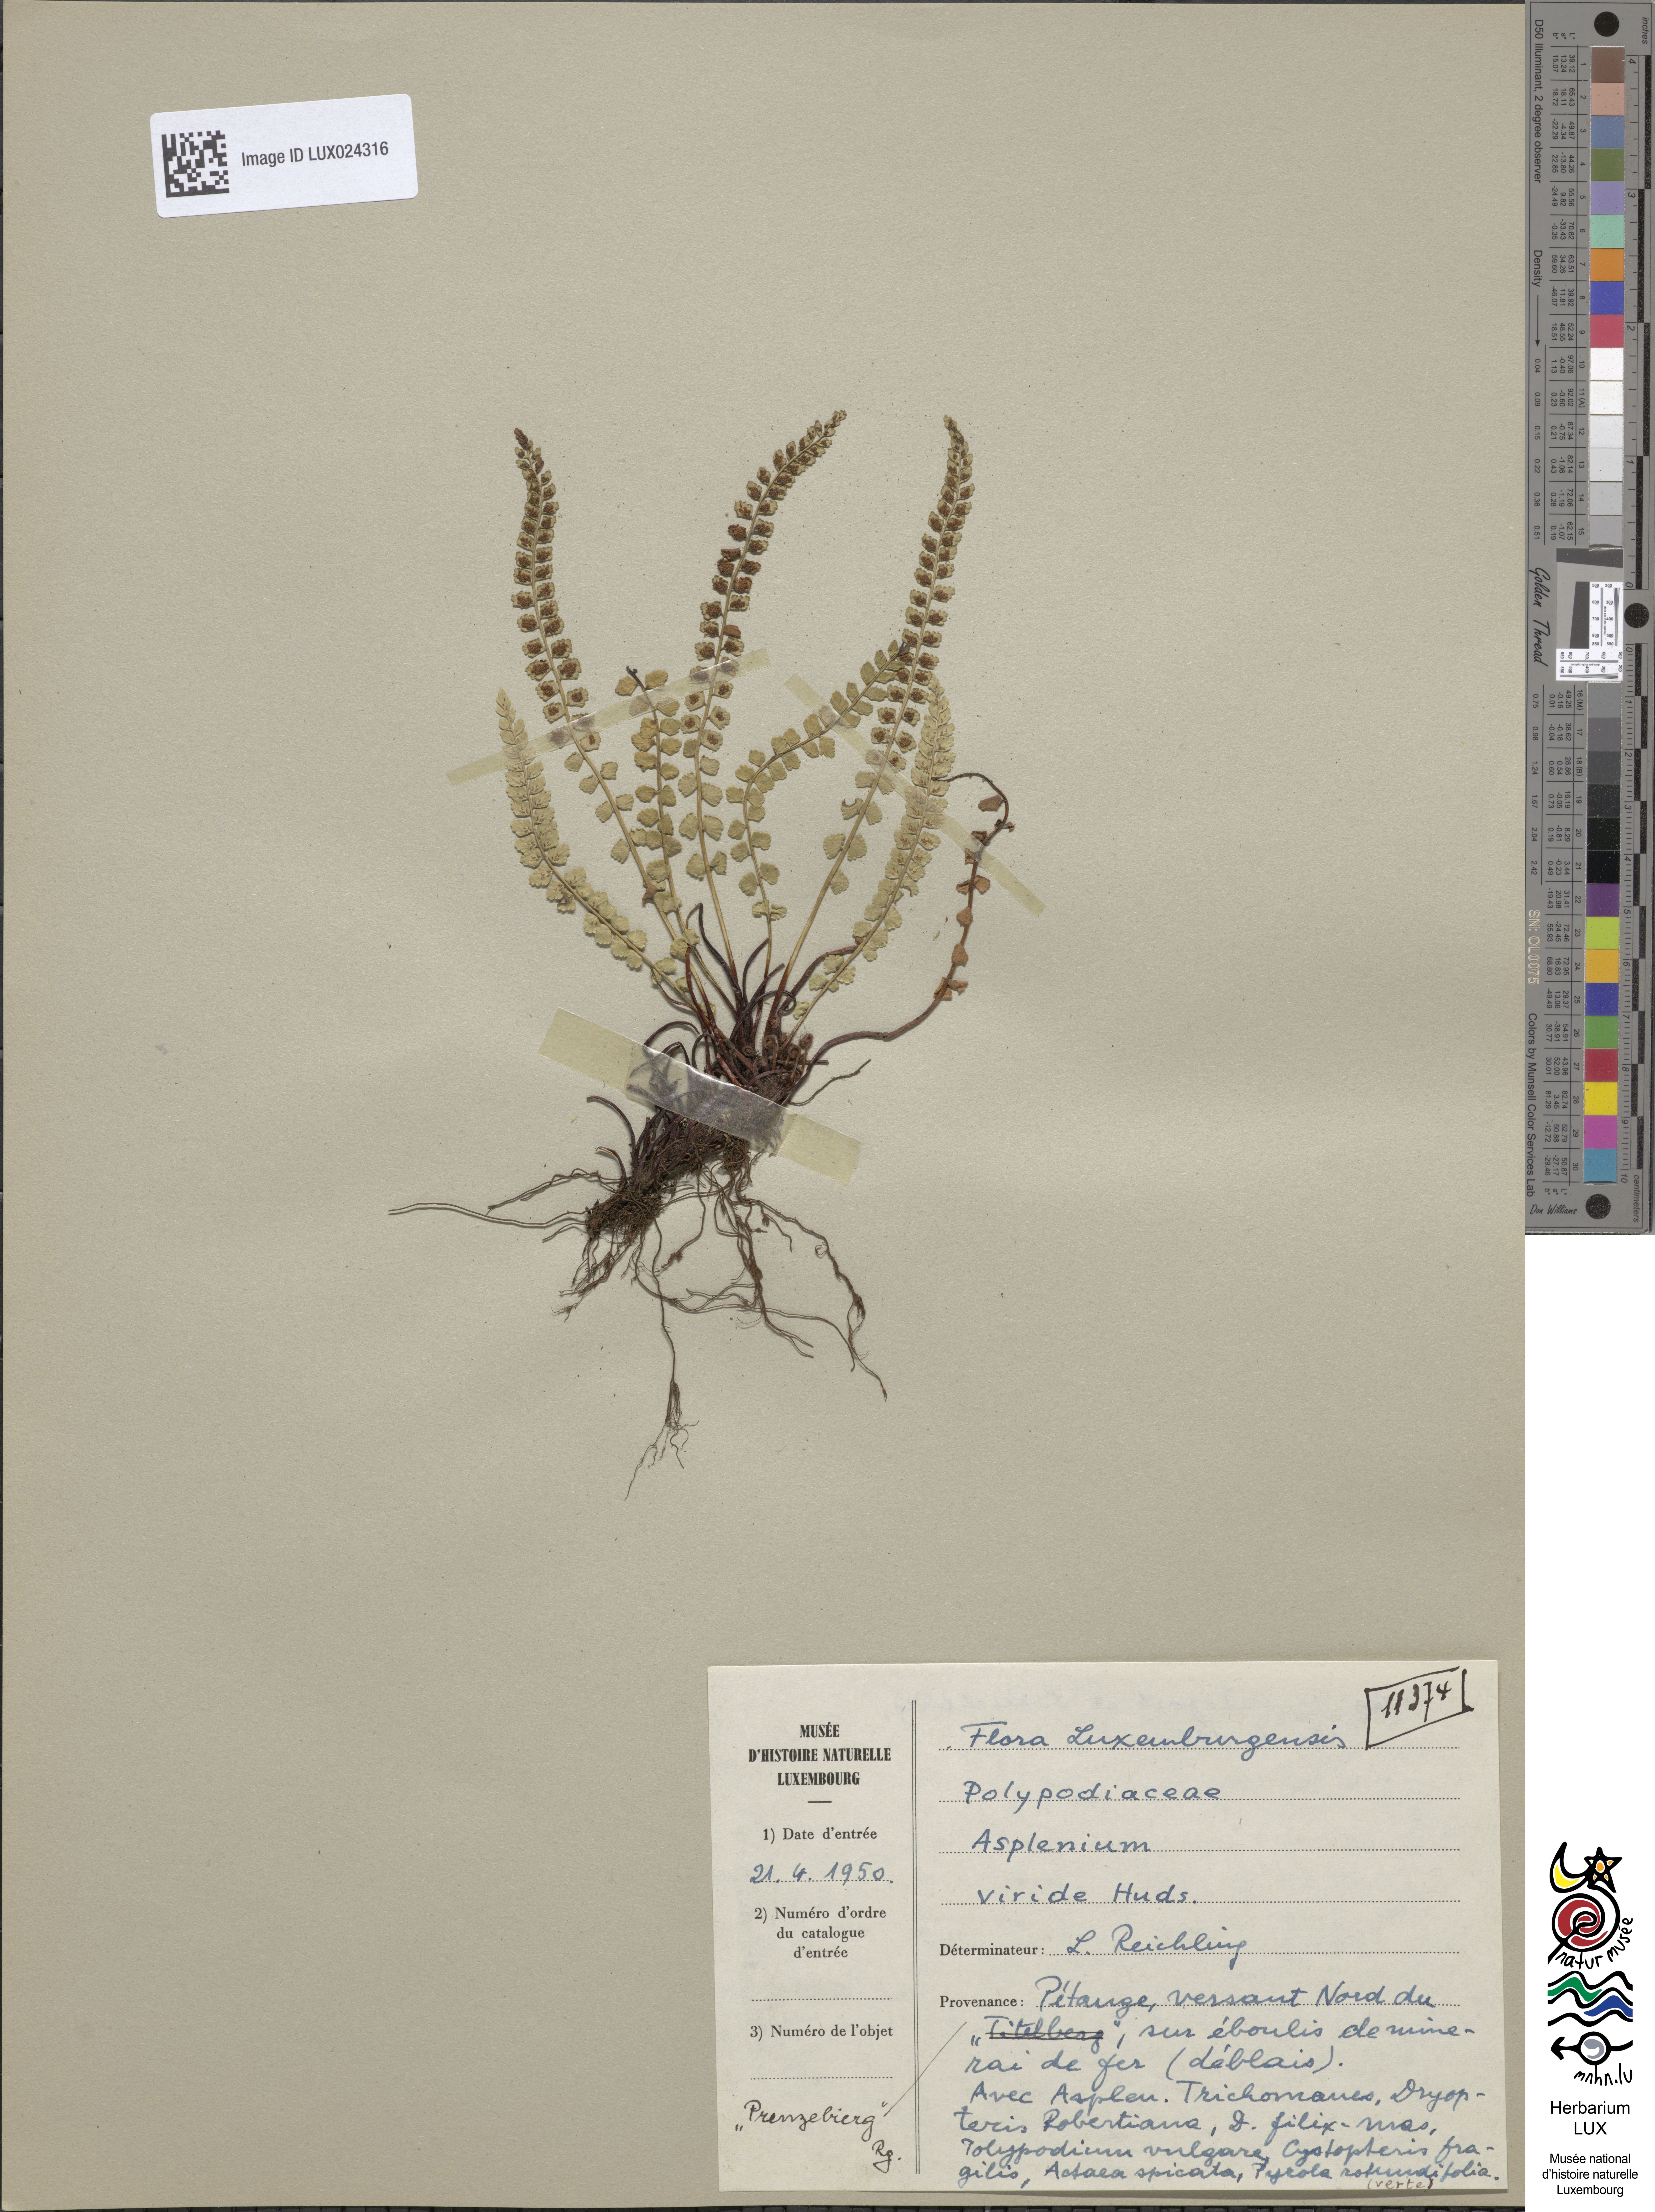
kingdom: Plantae
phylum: Tracheophyta
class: Polypodiopsida
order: Polypodiales
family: Aspleniaceae
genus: Asplenium
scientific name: Asplenium viride
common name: Green spleenwort
